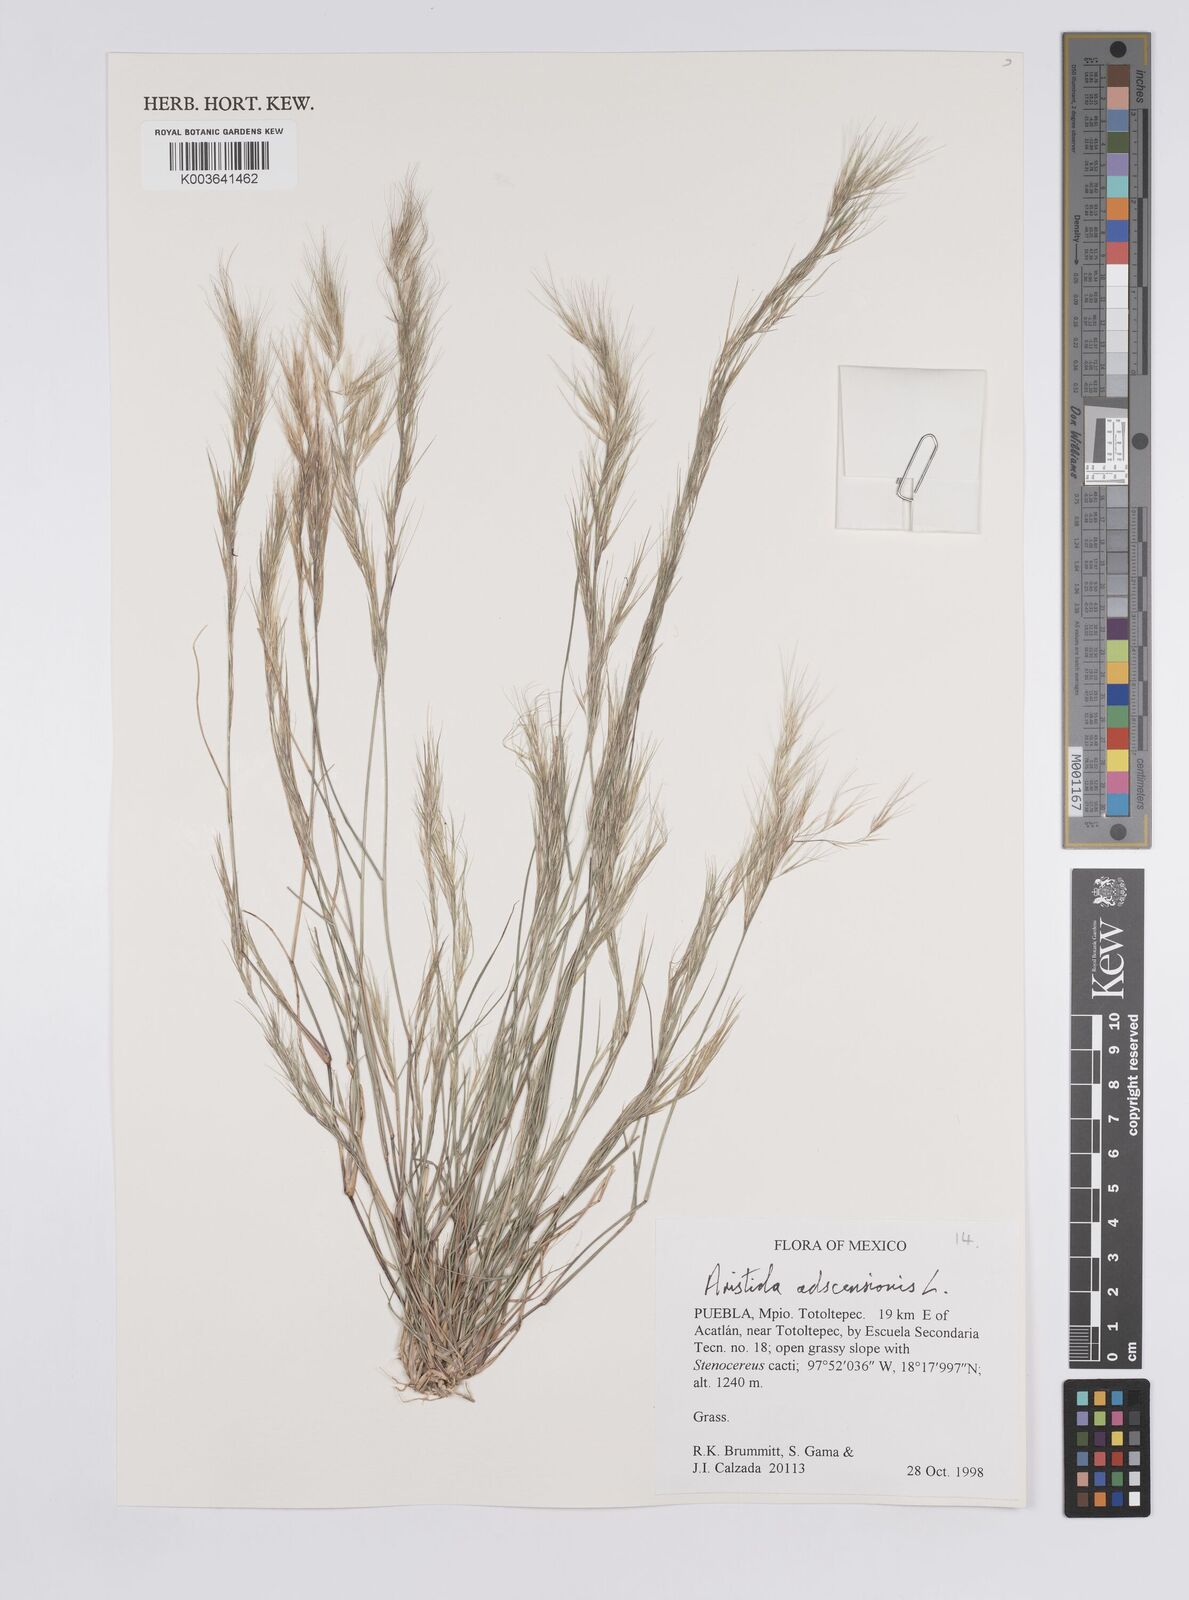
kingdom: Plantae
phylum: Tracheophyta
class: Liliopsida
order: Poales
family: Poaceae
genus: Aristida
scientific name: Aristida adscensionis
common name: Sixweeks threeawn
